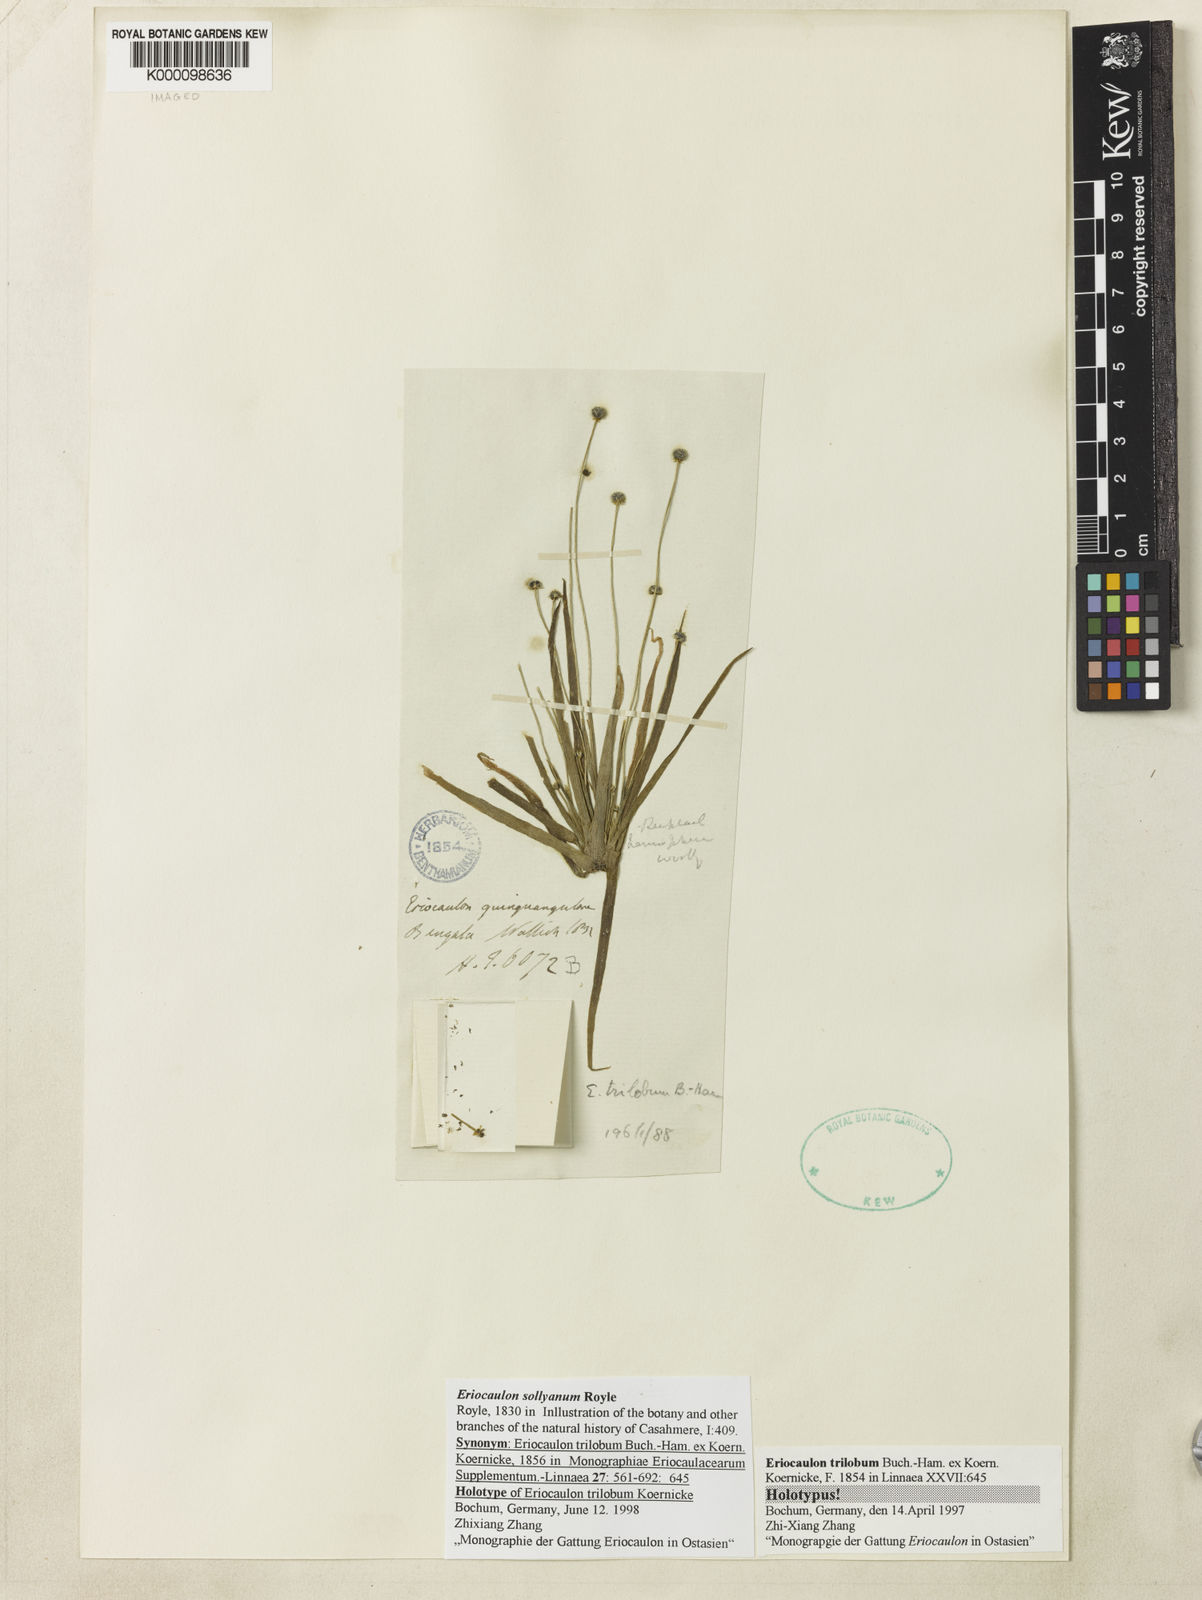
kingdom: Plantae
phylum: Tracheophyta
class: Liliopsida
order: Poales
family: Eriocaulaceae
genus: Eriocaulon
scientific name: Eriocaulon sollyanum
